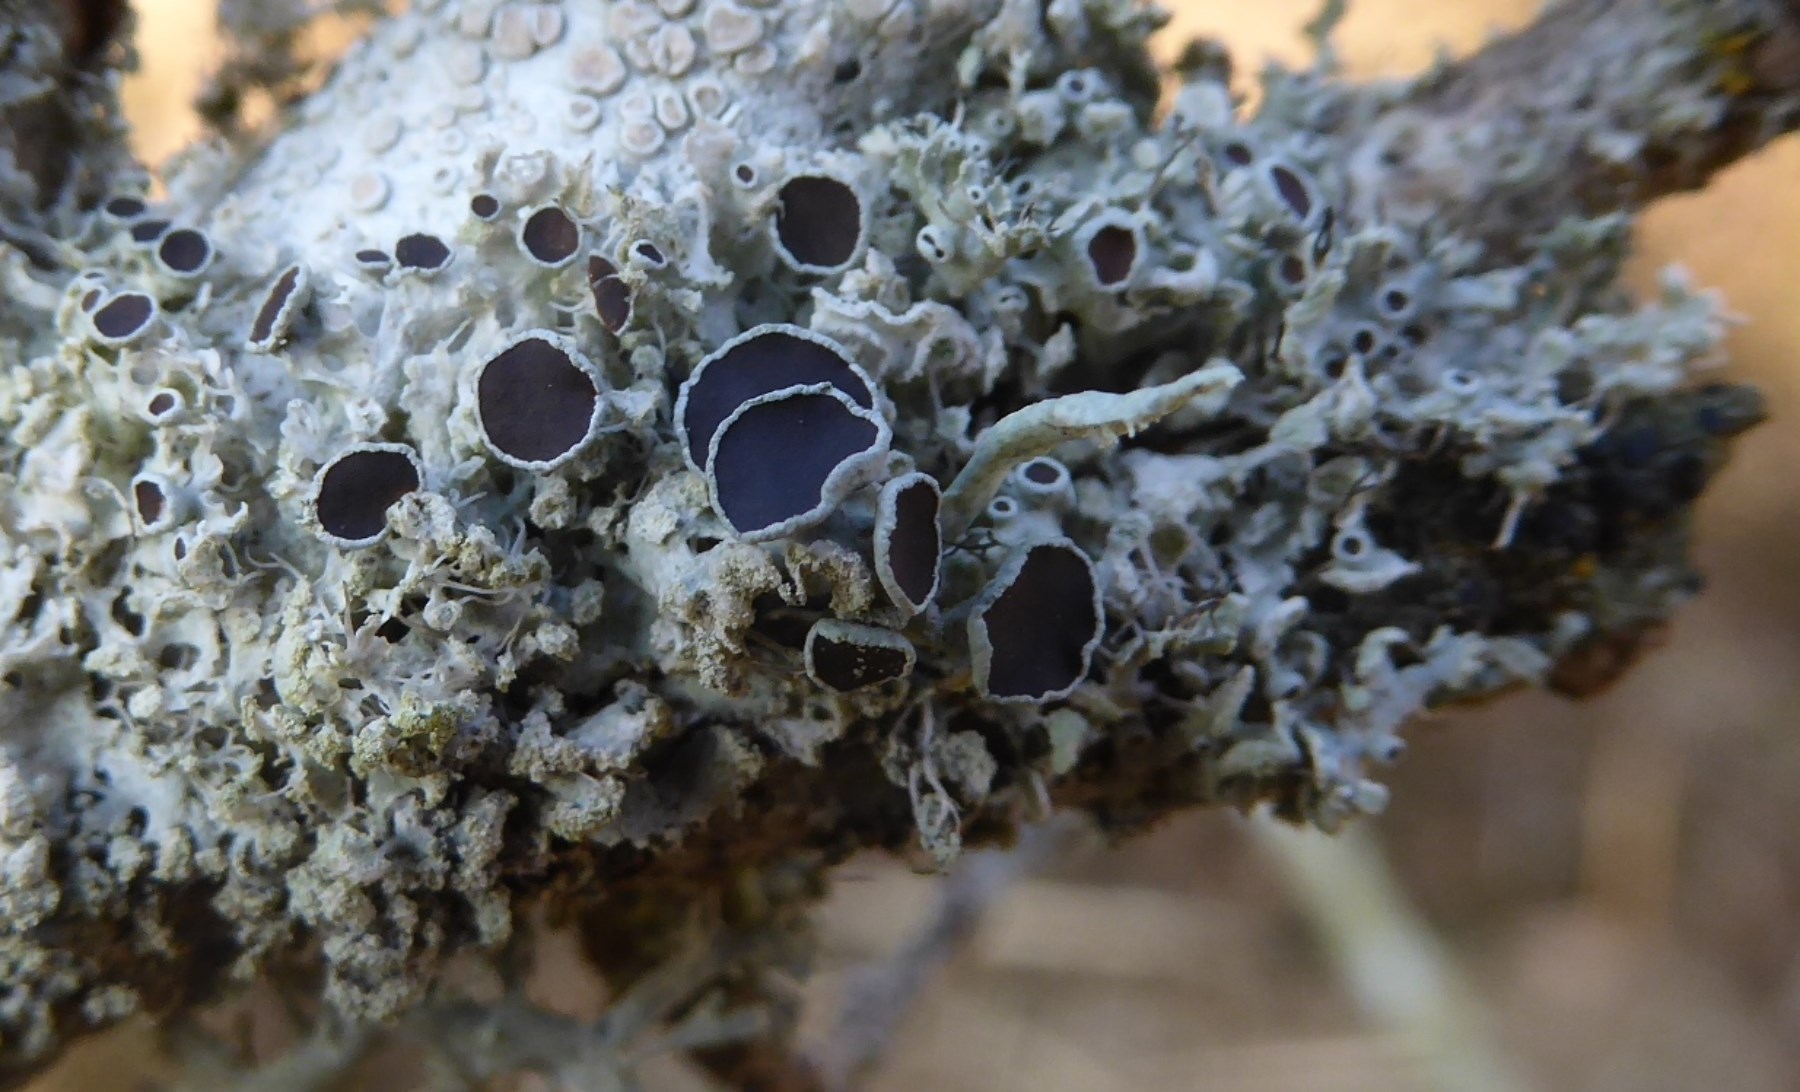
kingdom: Fungi
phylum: Ascomycota
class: Lecanoromycetes
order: Caliciales
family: Physciaceae
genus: Physcia
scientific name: Physcia tenella
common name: spæd rosetlav
